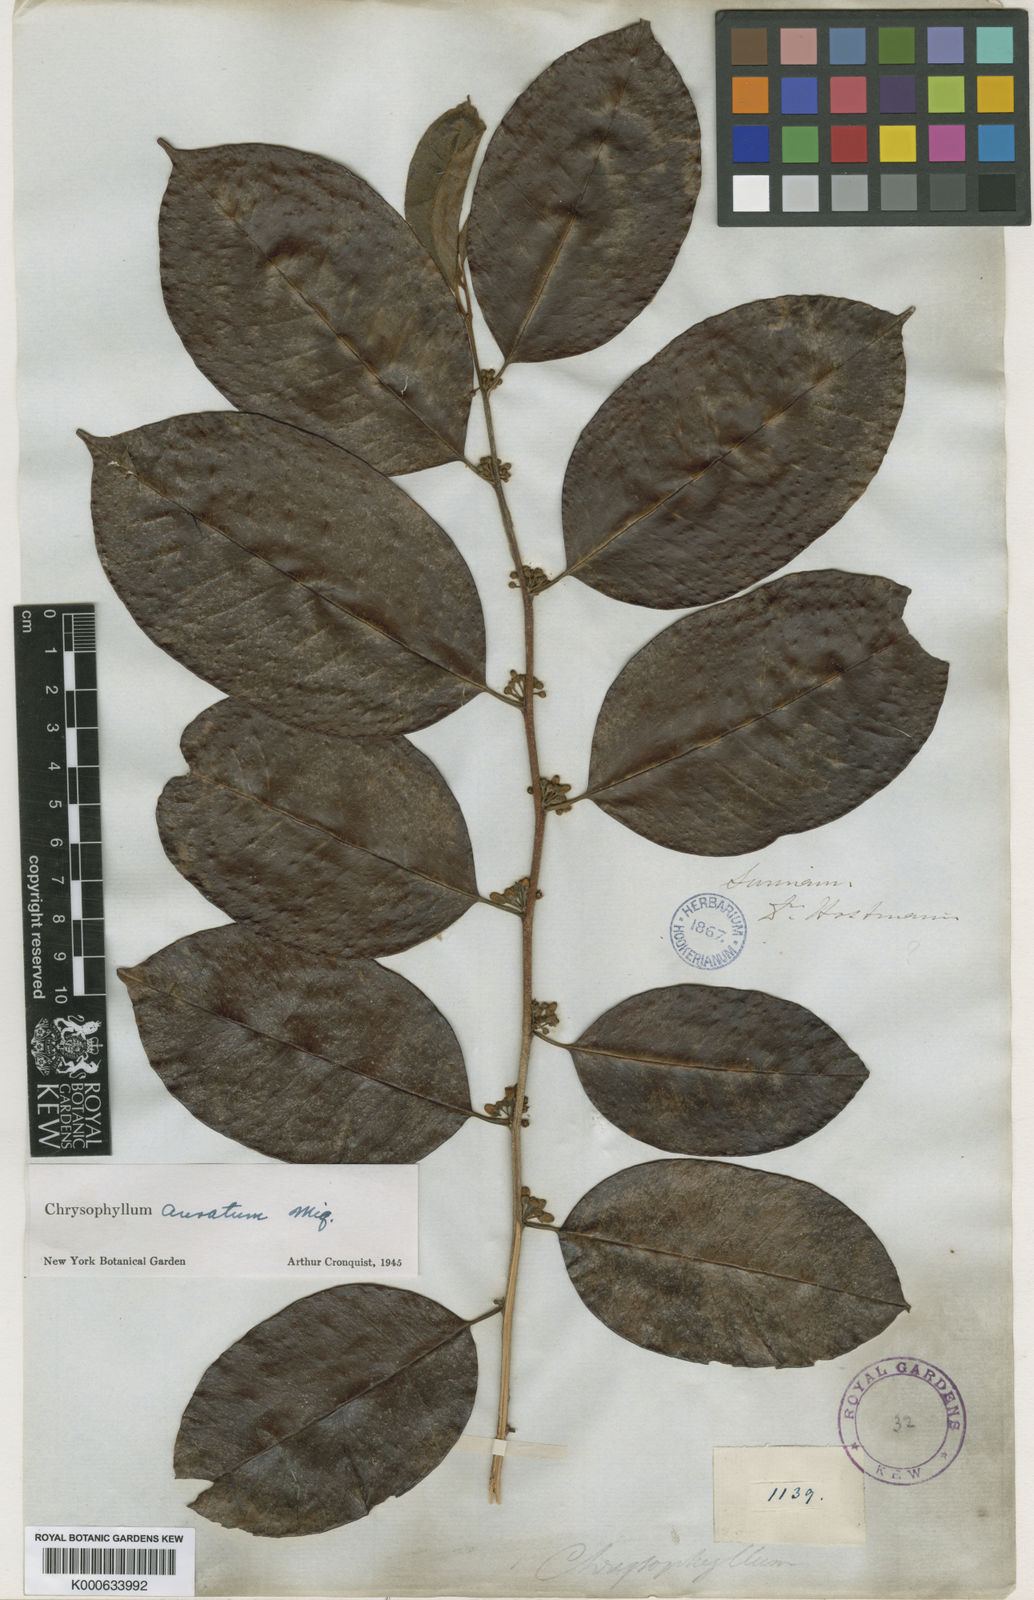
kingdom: Plantae
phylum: Tracheophyta
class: Magnoliopsida
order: Ericales
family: Sapotaceae
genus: Chrysophyllum
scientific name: Chrysophyllum argenteum
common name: Smooth star apple
